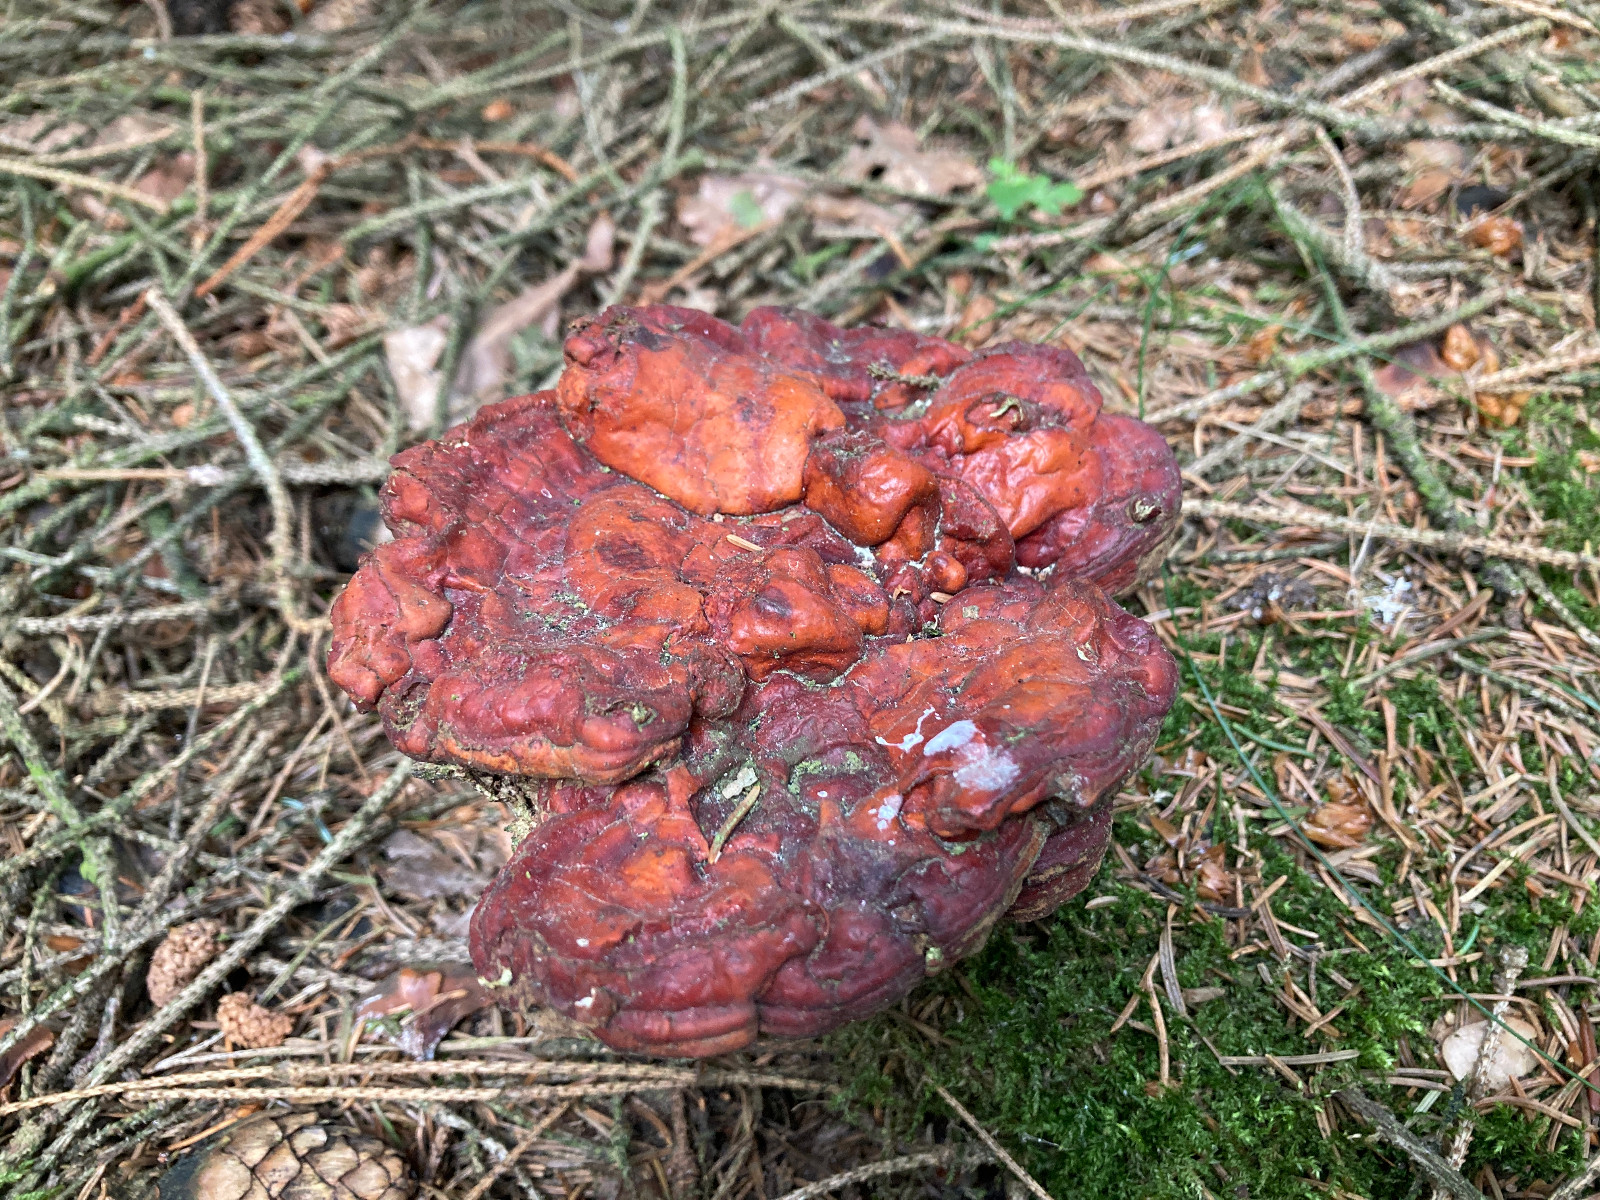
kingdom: Fungi
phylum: Basidiomycota
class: Agaricomycetes
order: Polyporales
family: Polyporaceae
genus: Ganoderma
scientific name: Ganoderma lucidum
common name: skinnende lakporesvamp
